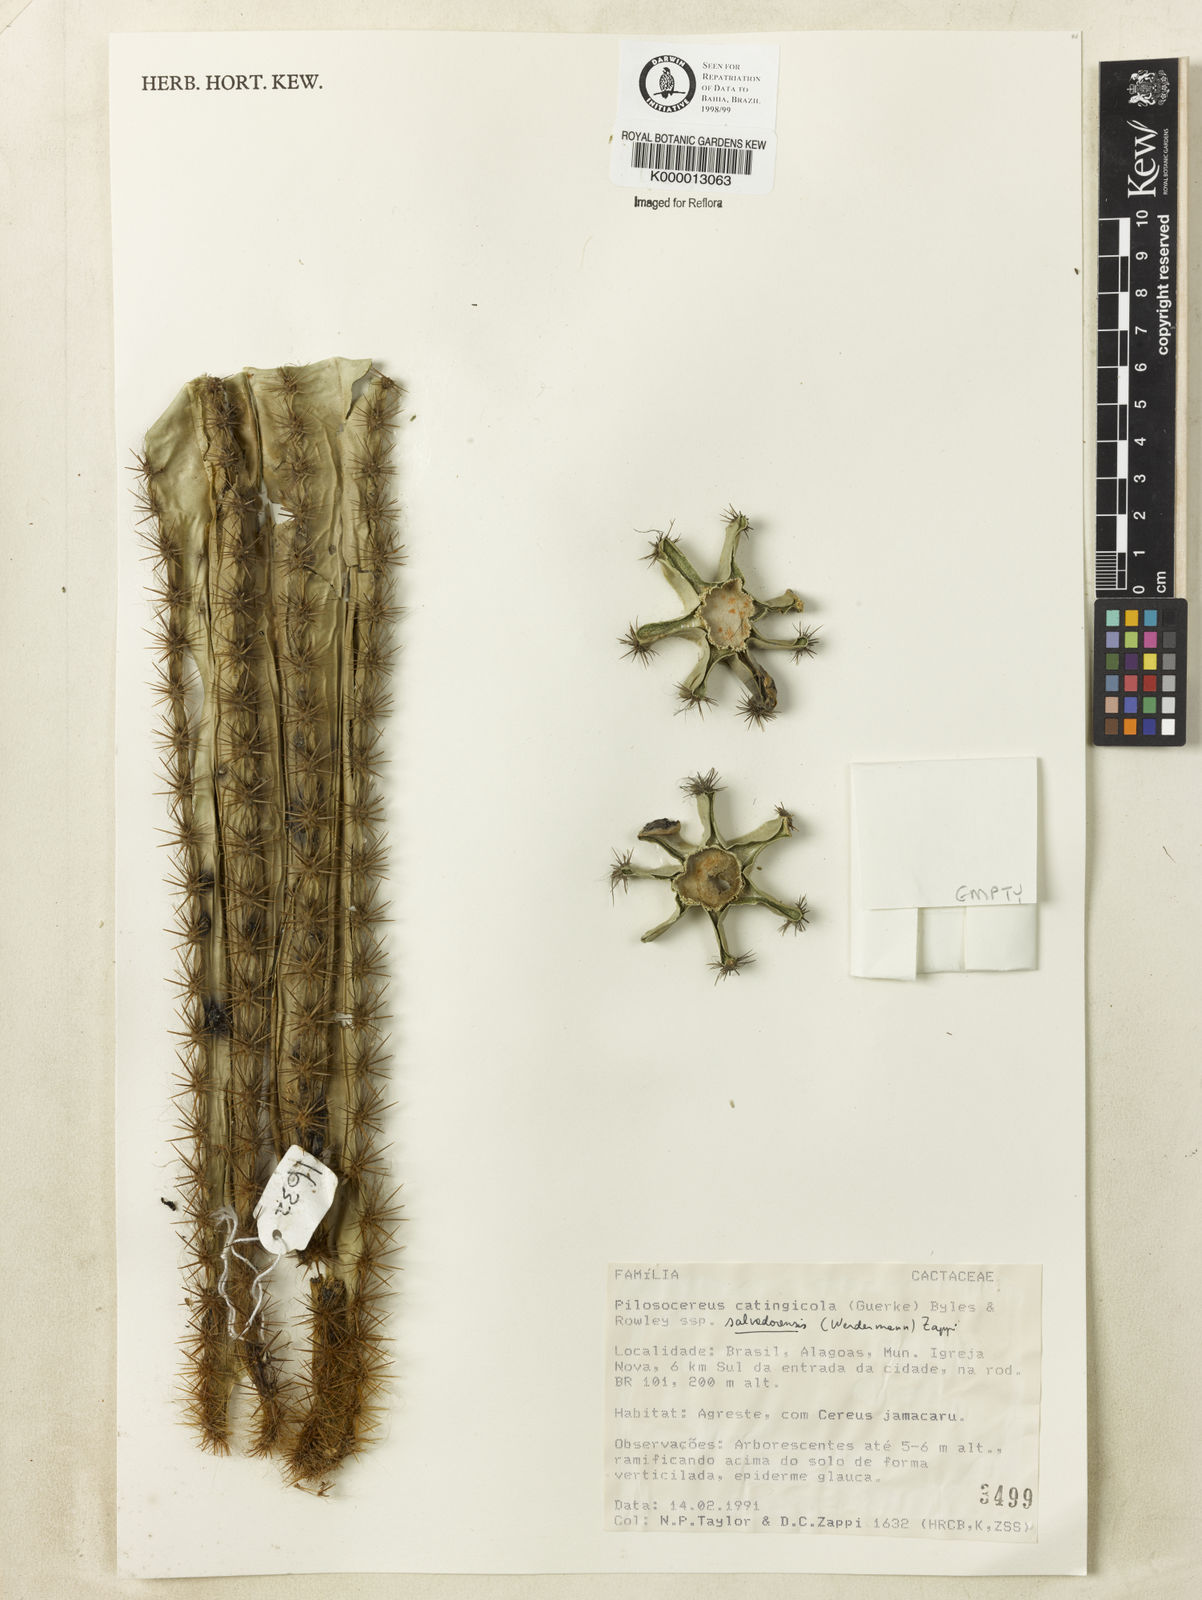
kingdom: Plantae
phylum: Tracheophyta
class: Magnoliopsida
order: Caryophyllales
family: Cactaceae
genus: Pilosocereus
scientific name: Pilosocereus catingicola
